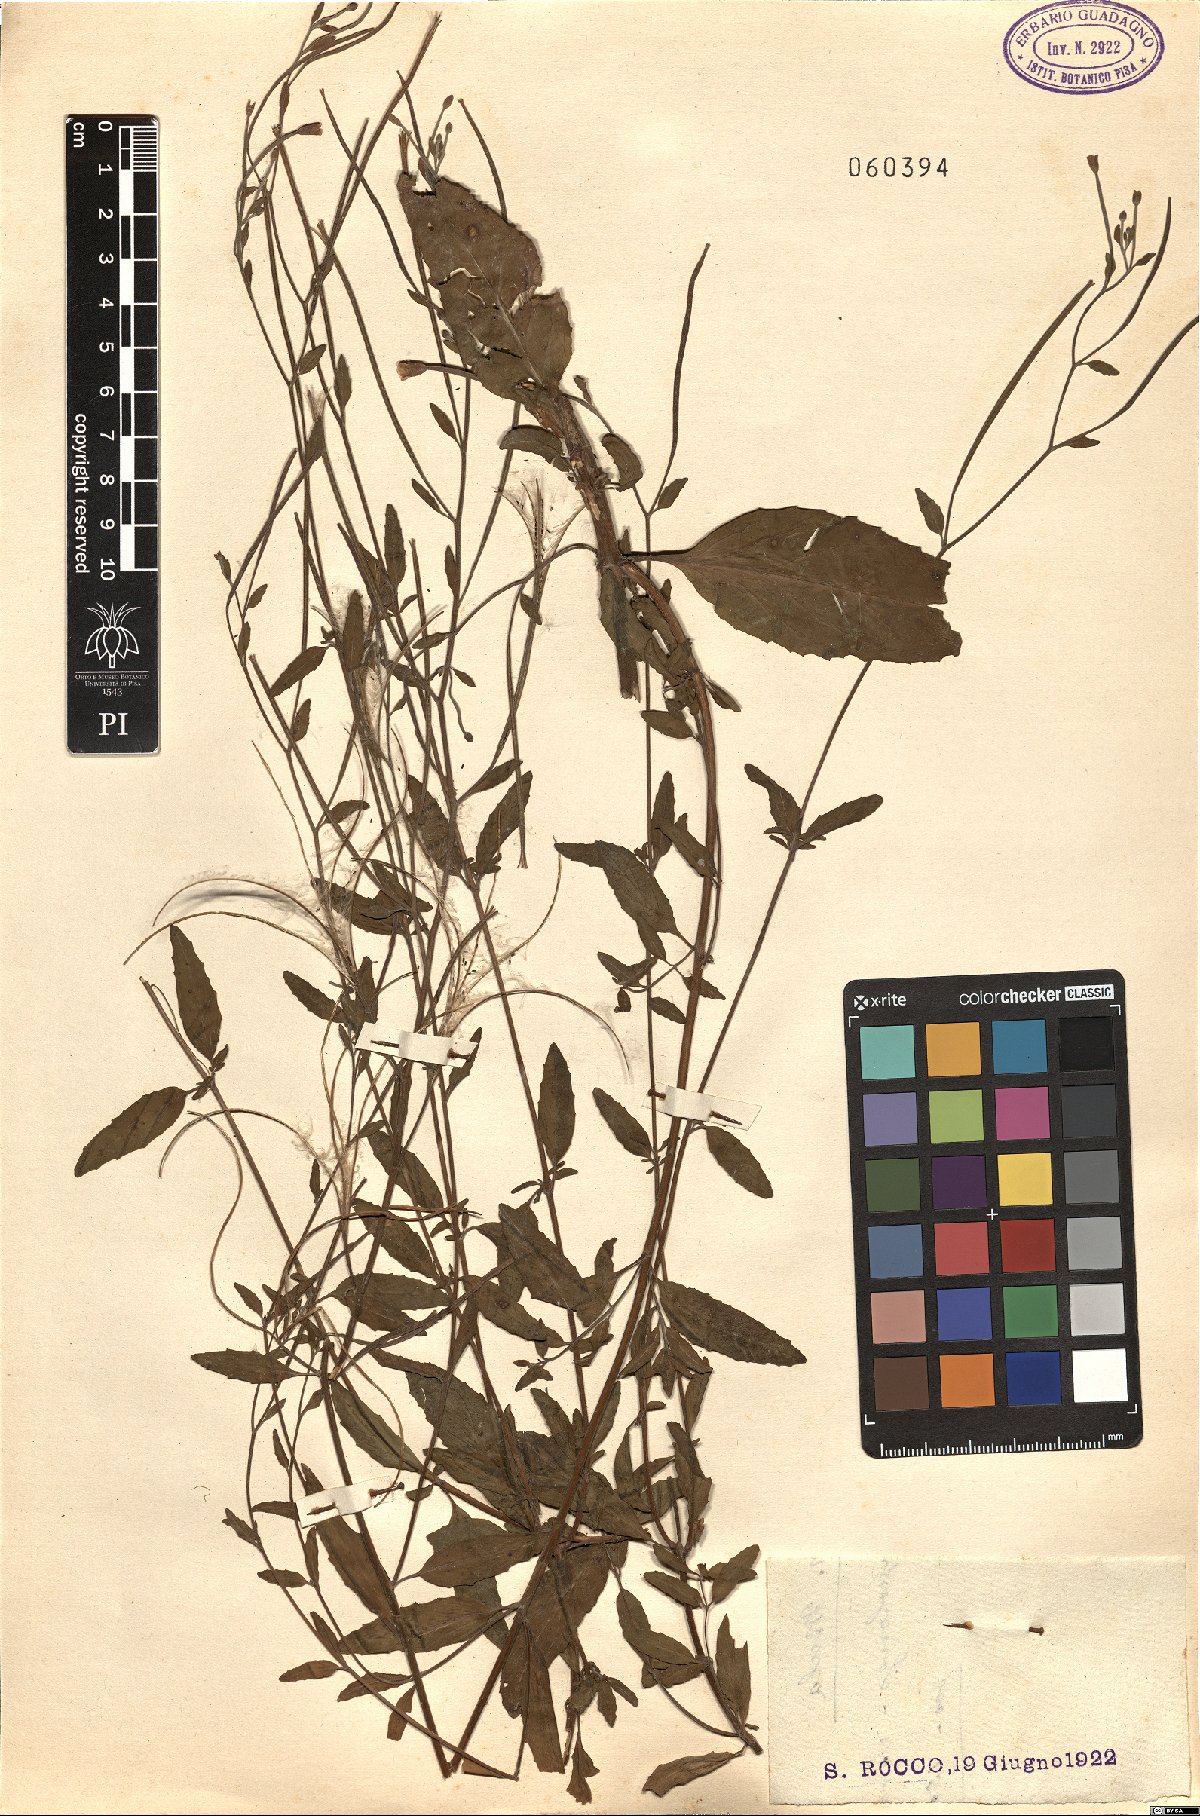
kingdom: Plantae
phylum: Tracheophyta
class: Magnoliopsida
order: Myrtales
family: Onagraceae
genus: Epilobium
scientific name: Epilobium
